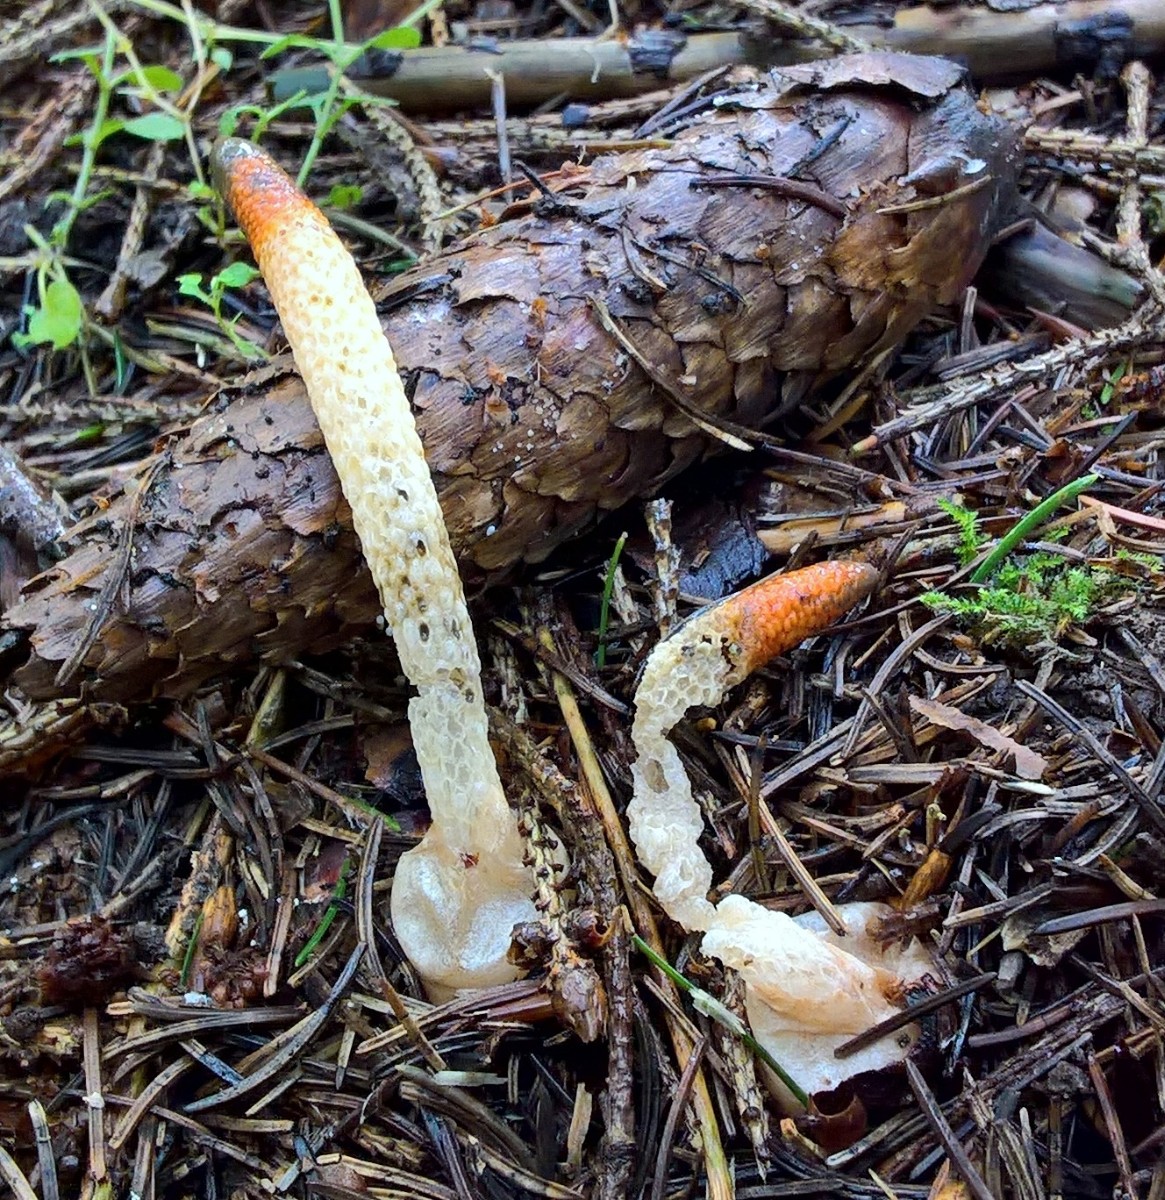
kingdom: Fungi
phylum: Basidiomycota
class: Agaricomycetes
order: Phallales
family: Phallaceae
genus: Mutinus
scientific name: Mutinus caninus
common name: hunde-stinksvamp
